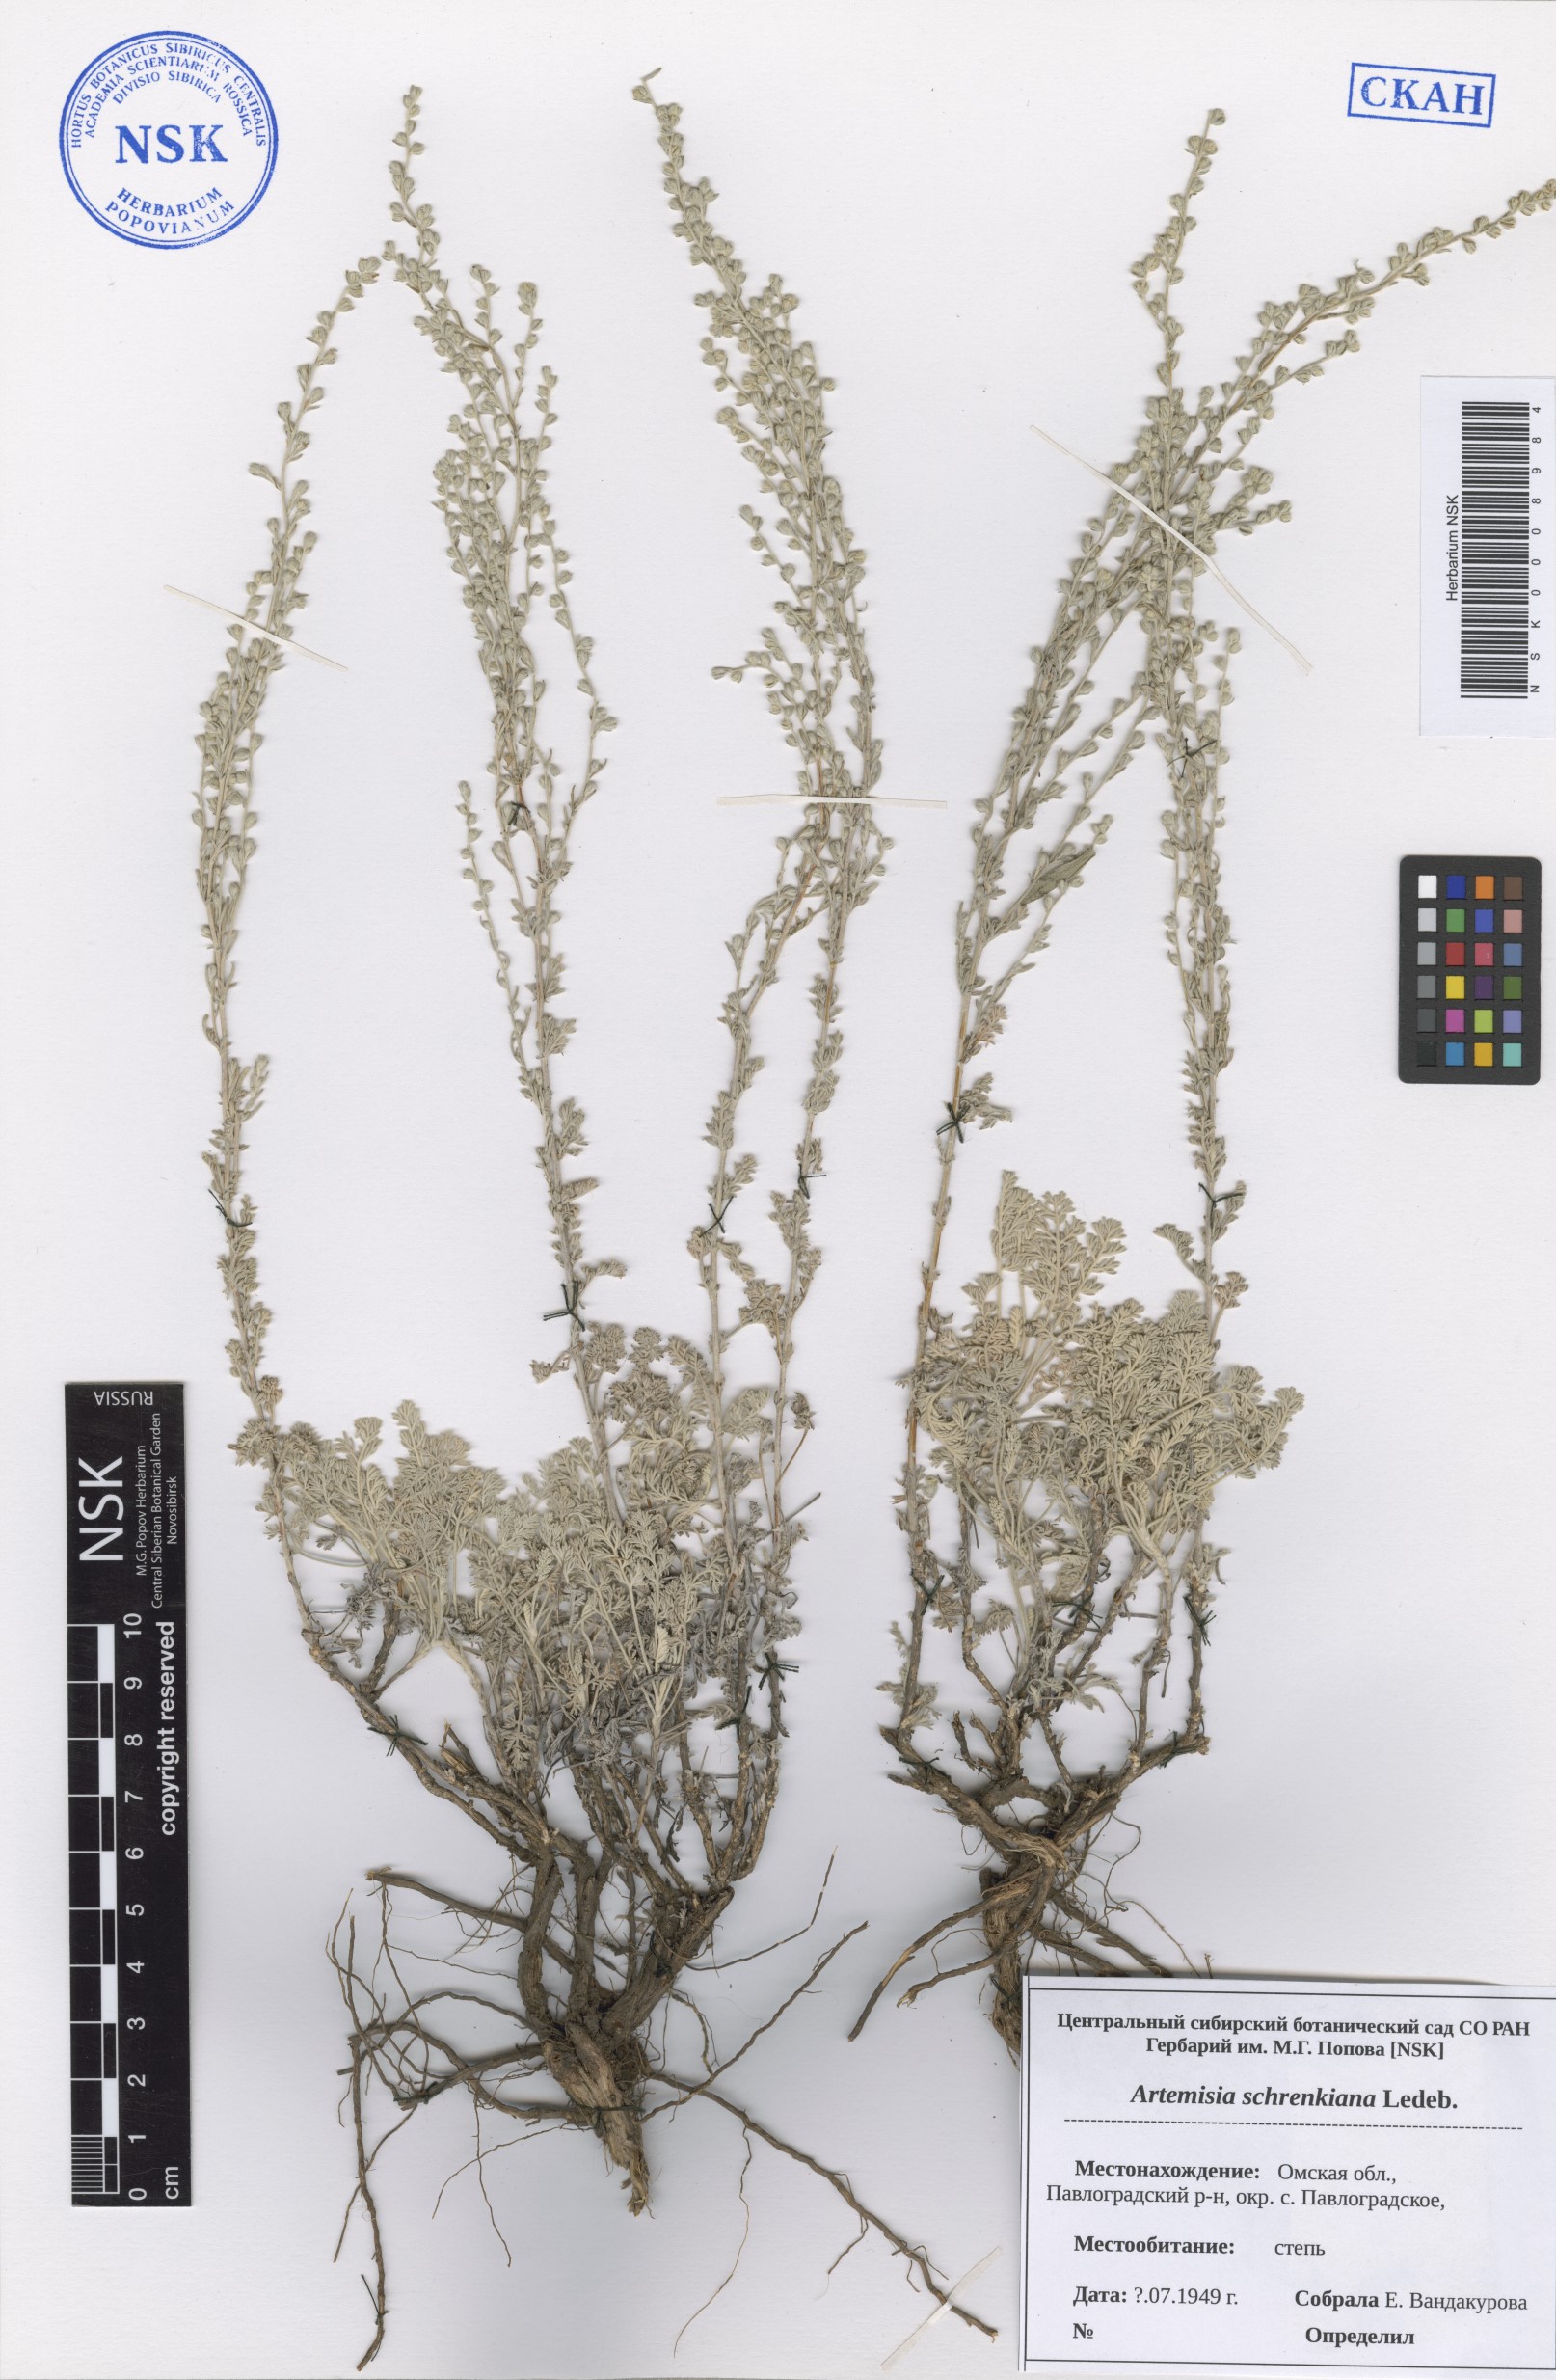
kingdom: Plantae
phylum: Tracheophyta
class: Magnoliopsida
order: Asterales
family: Asteraceae
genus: Artemisia
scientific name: Artemisia schrenkiana
